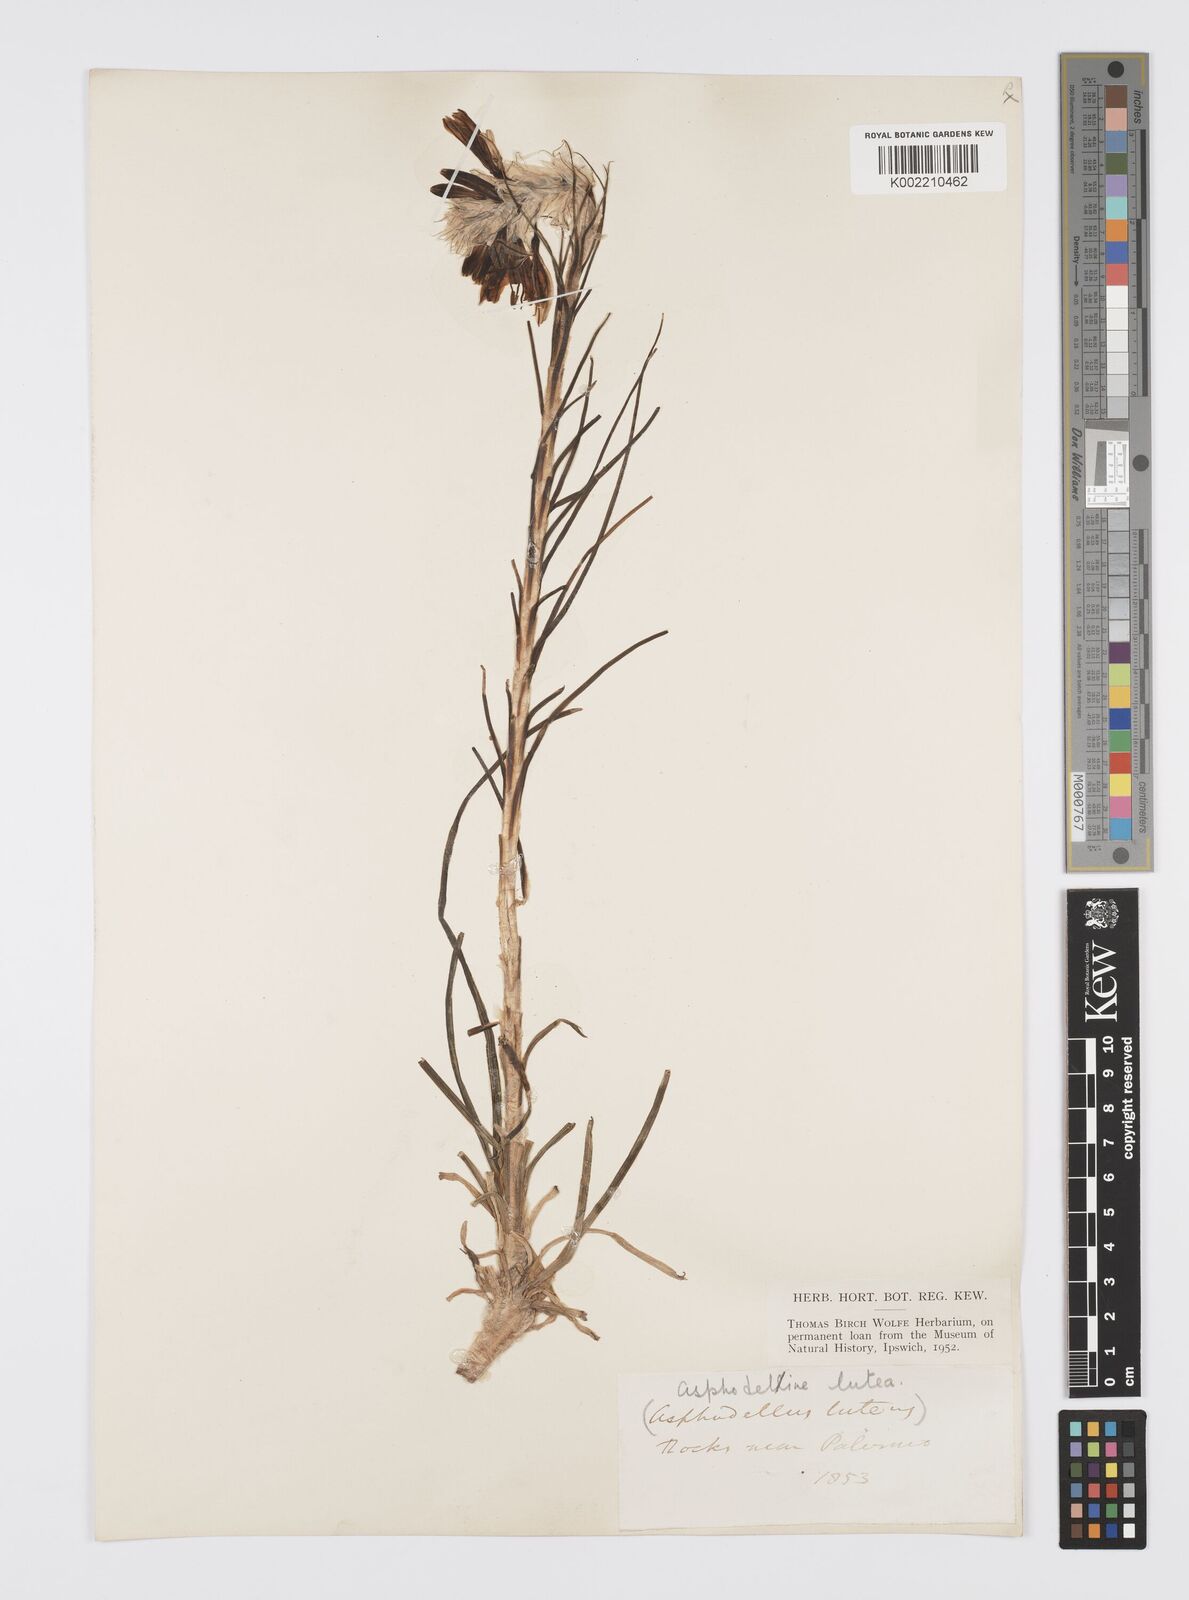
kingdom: Plantae
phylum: Tracheophyta
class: Liliopsida
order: Asparagales
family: Asphodelaceae
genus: Asphodeline
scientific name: Asphodeline lutea
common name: Yellow asphodel
